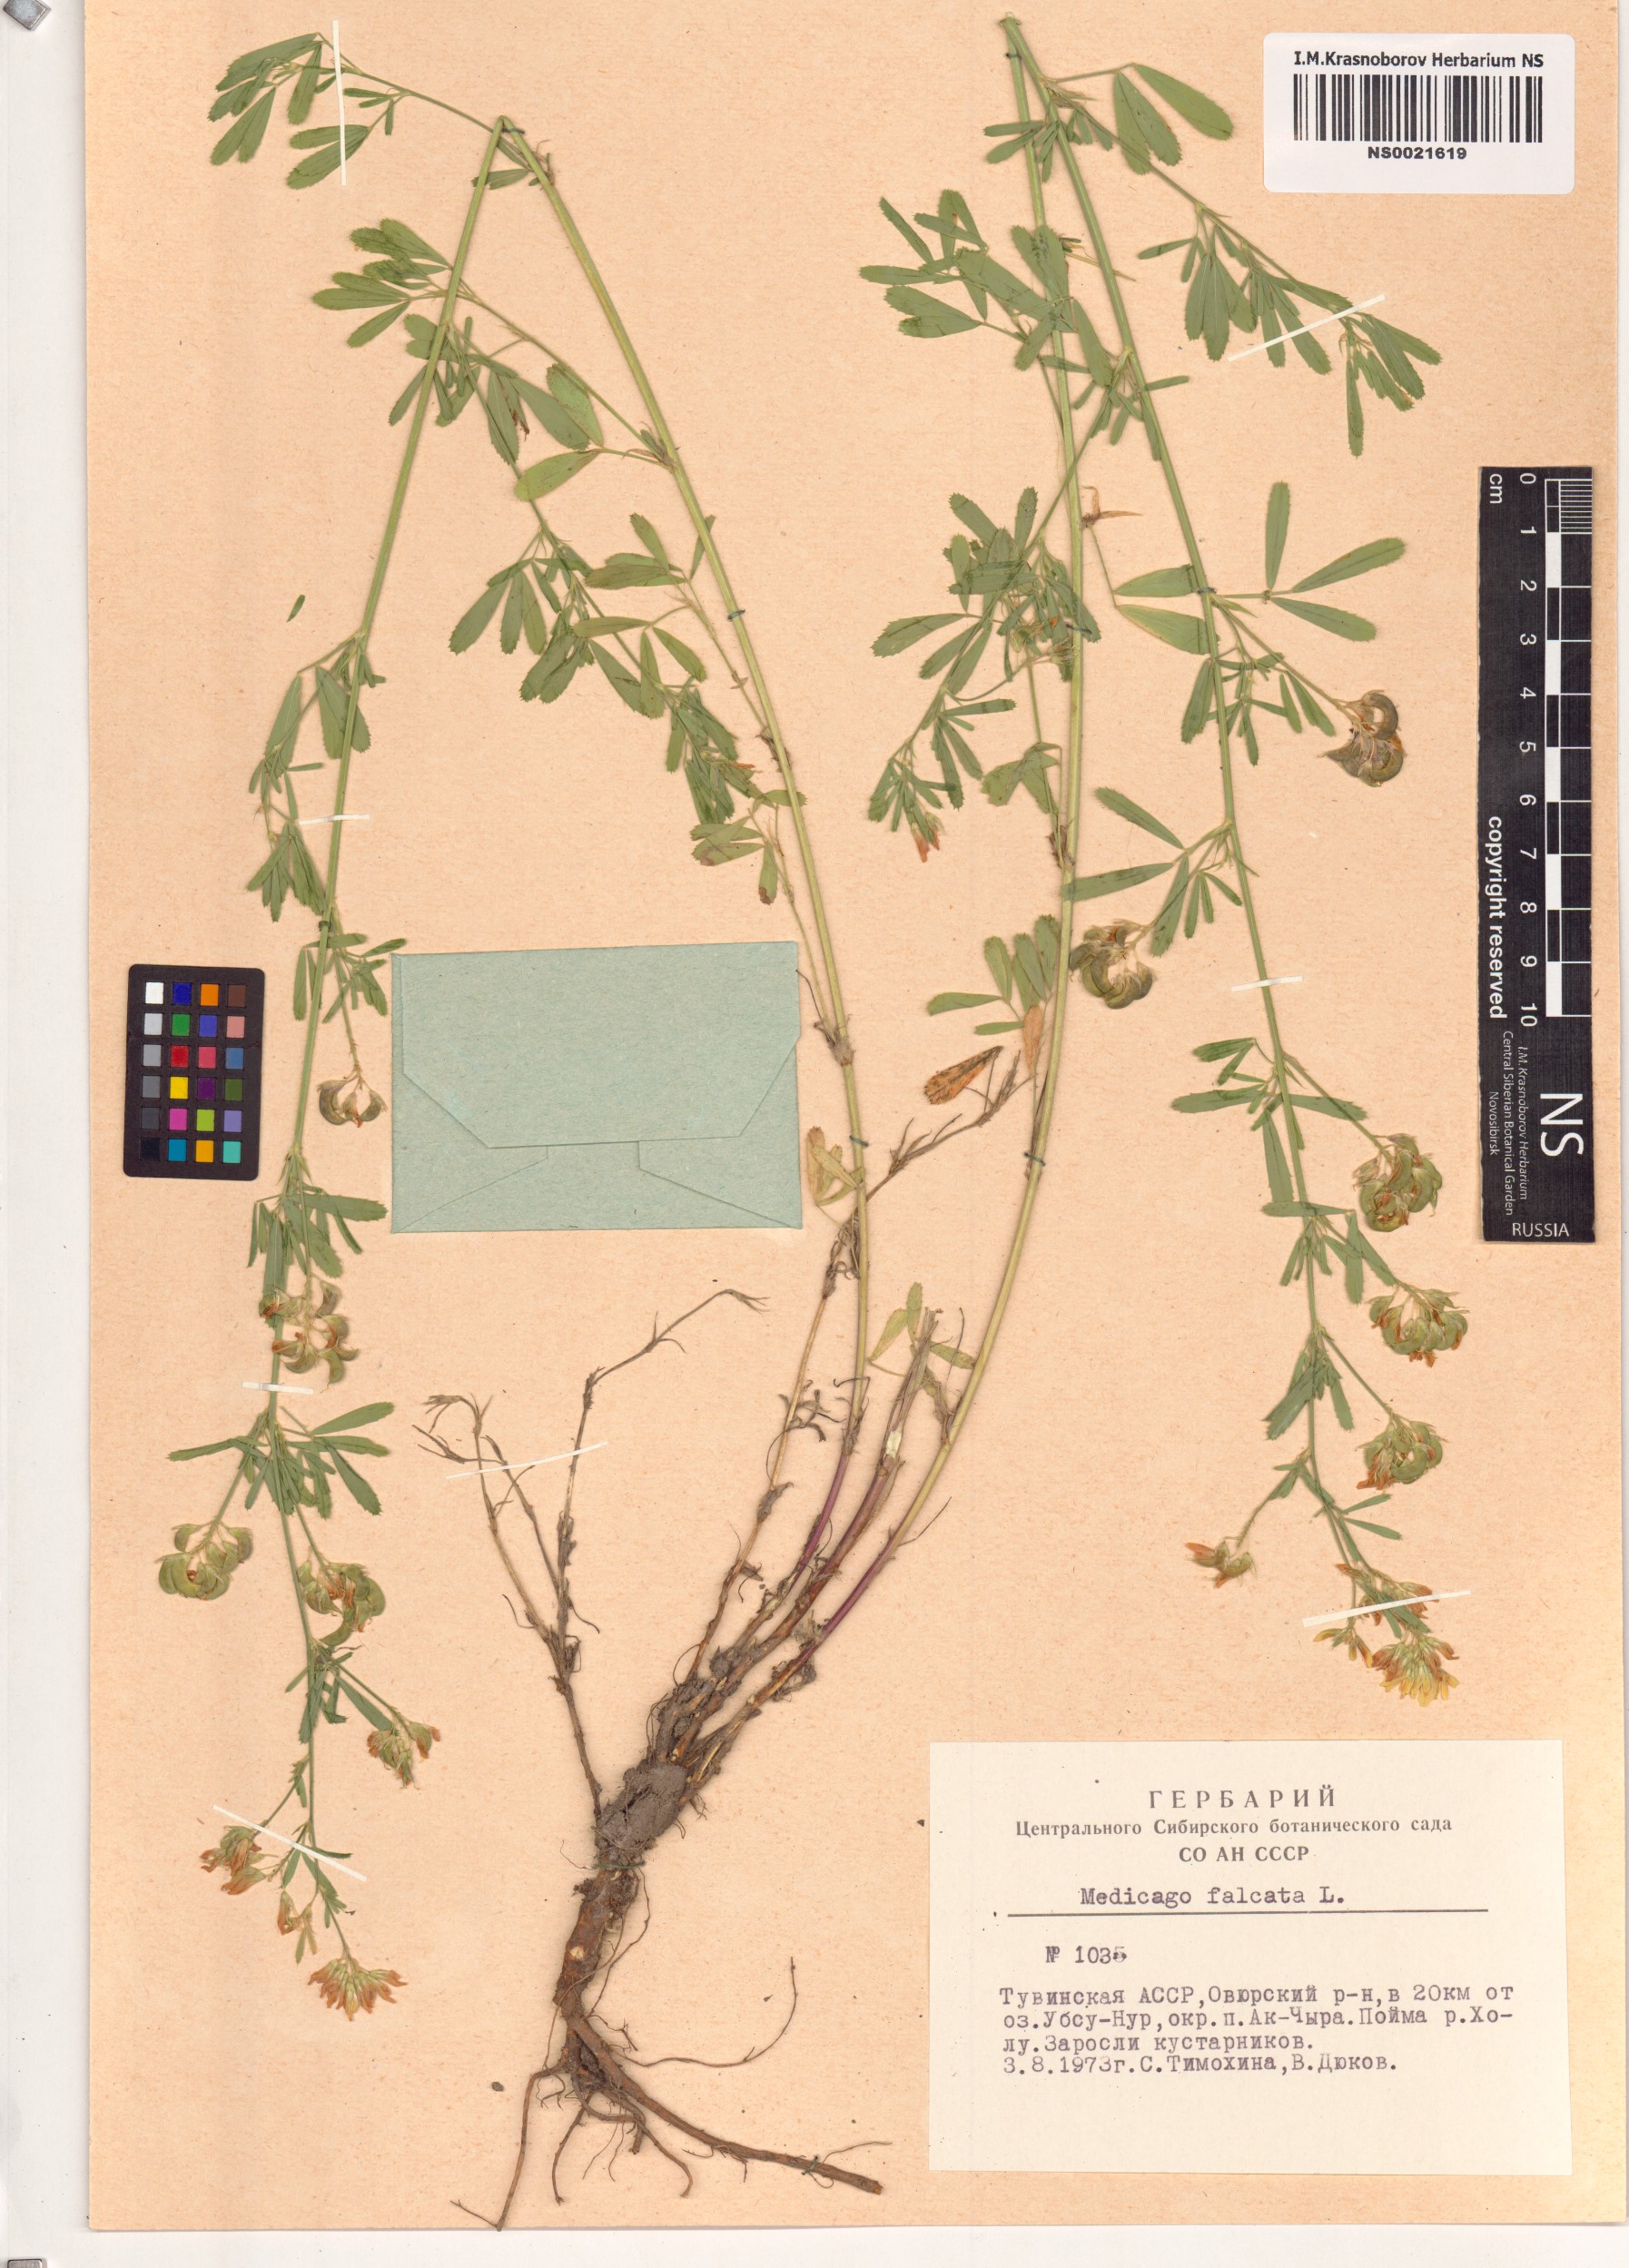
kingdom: Plantae
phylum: Tracheophyta
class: Magnoliopsida
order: Fabales
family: Fabaceae
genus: Medicago
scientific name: Medicago falcata
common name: Sickle medick
